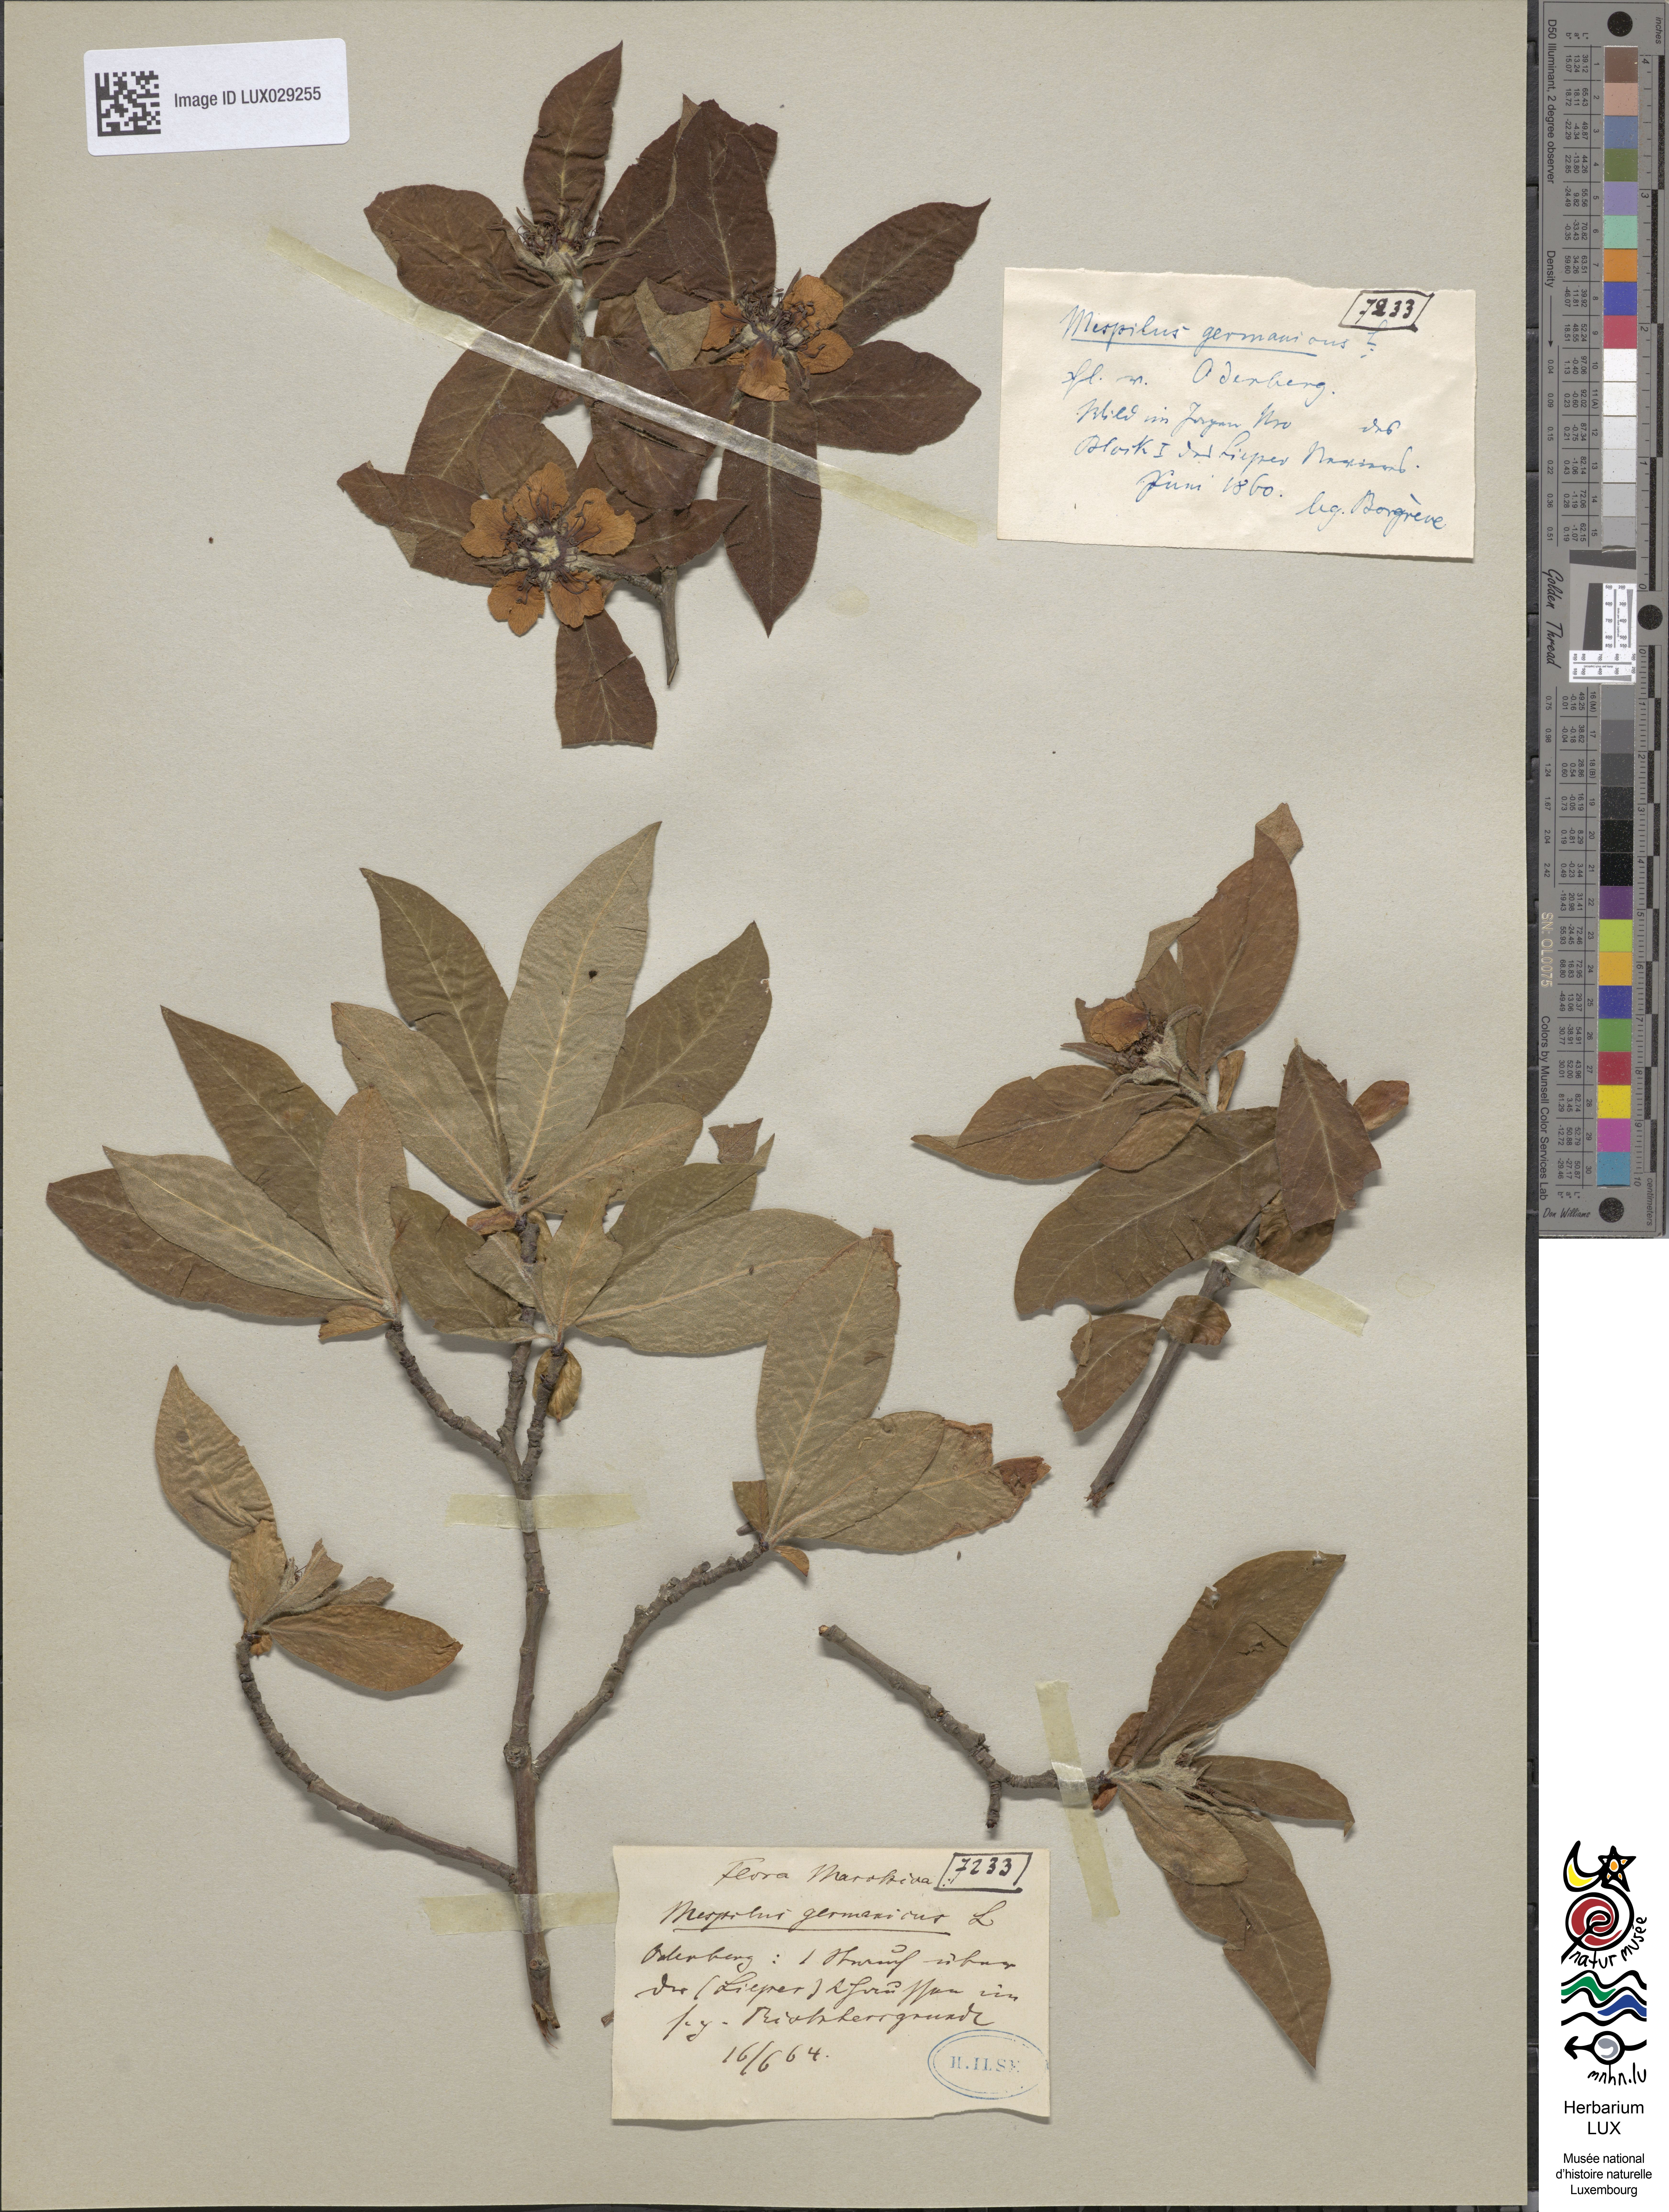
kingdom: Plantae
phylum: Tracheophyta
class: Magnoliopsida
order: Rosales
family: Rosaceae
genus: Mespilus
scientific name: Mespilus germanica
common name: Medlar
